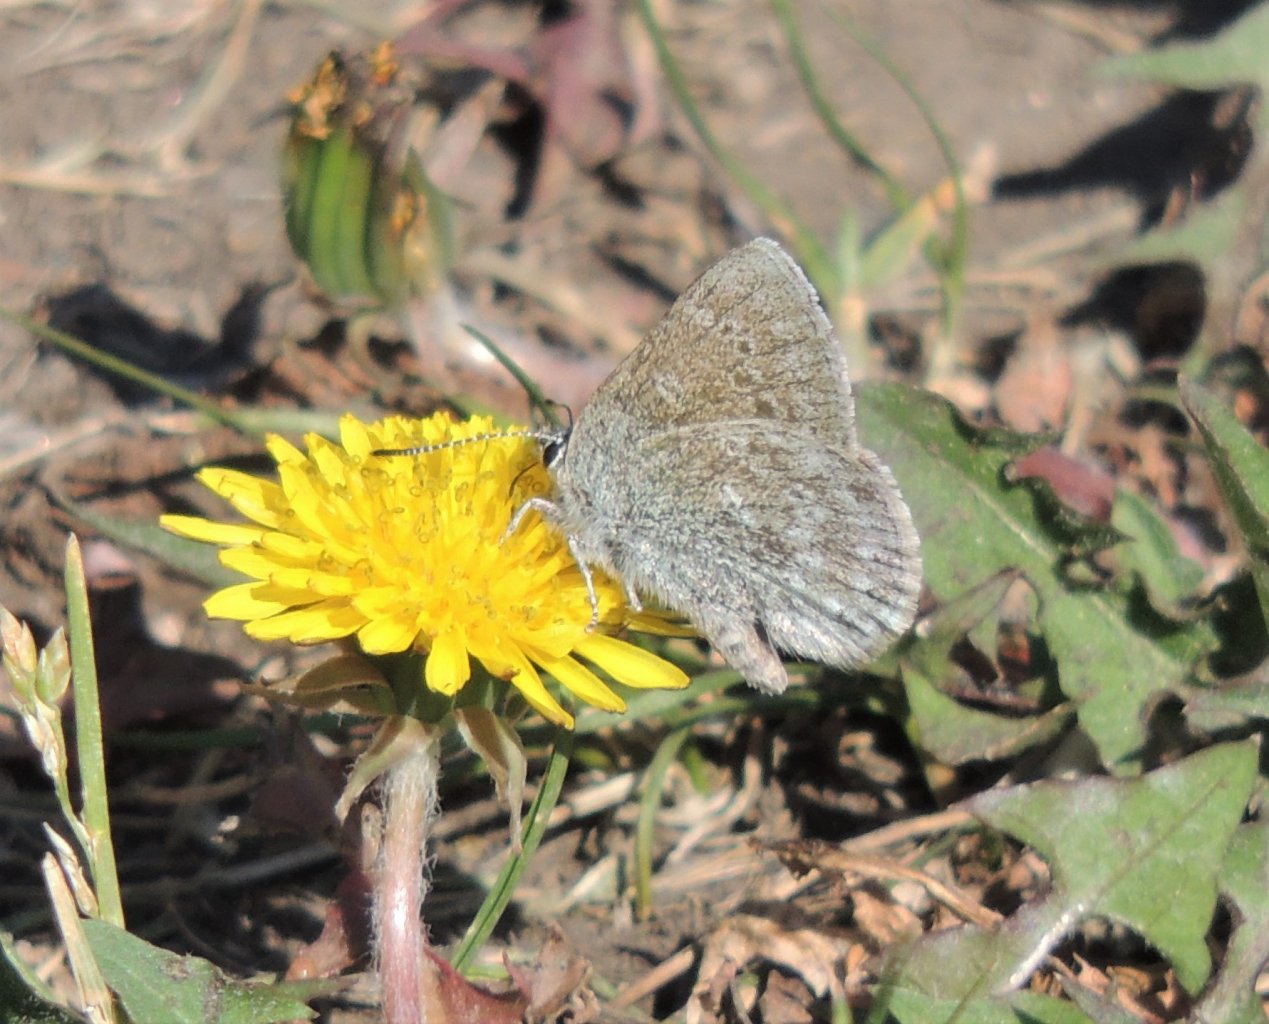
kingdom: Animalia
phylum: Arthropoda
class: Insecta
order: Lepidoptera
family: Lycaenidae
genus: Plebejus
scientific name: Plebejus saepiolus
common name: Greenish Blue
